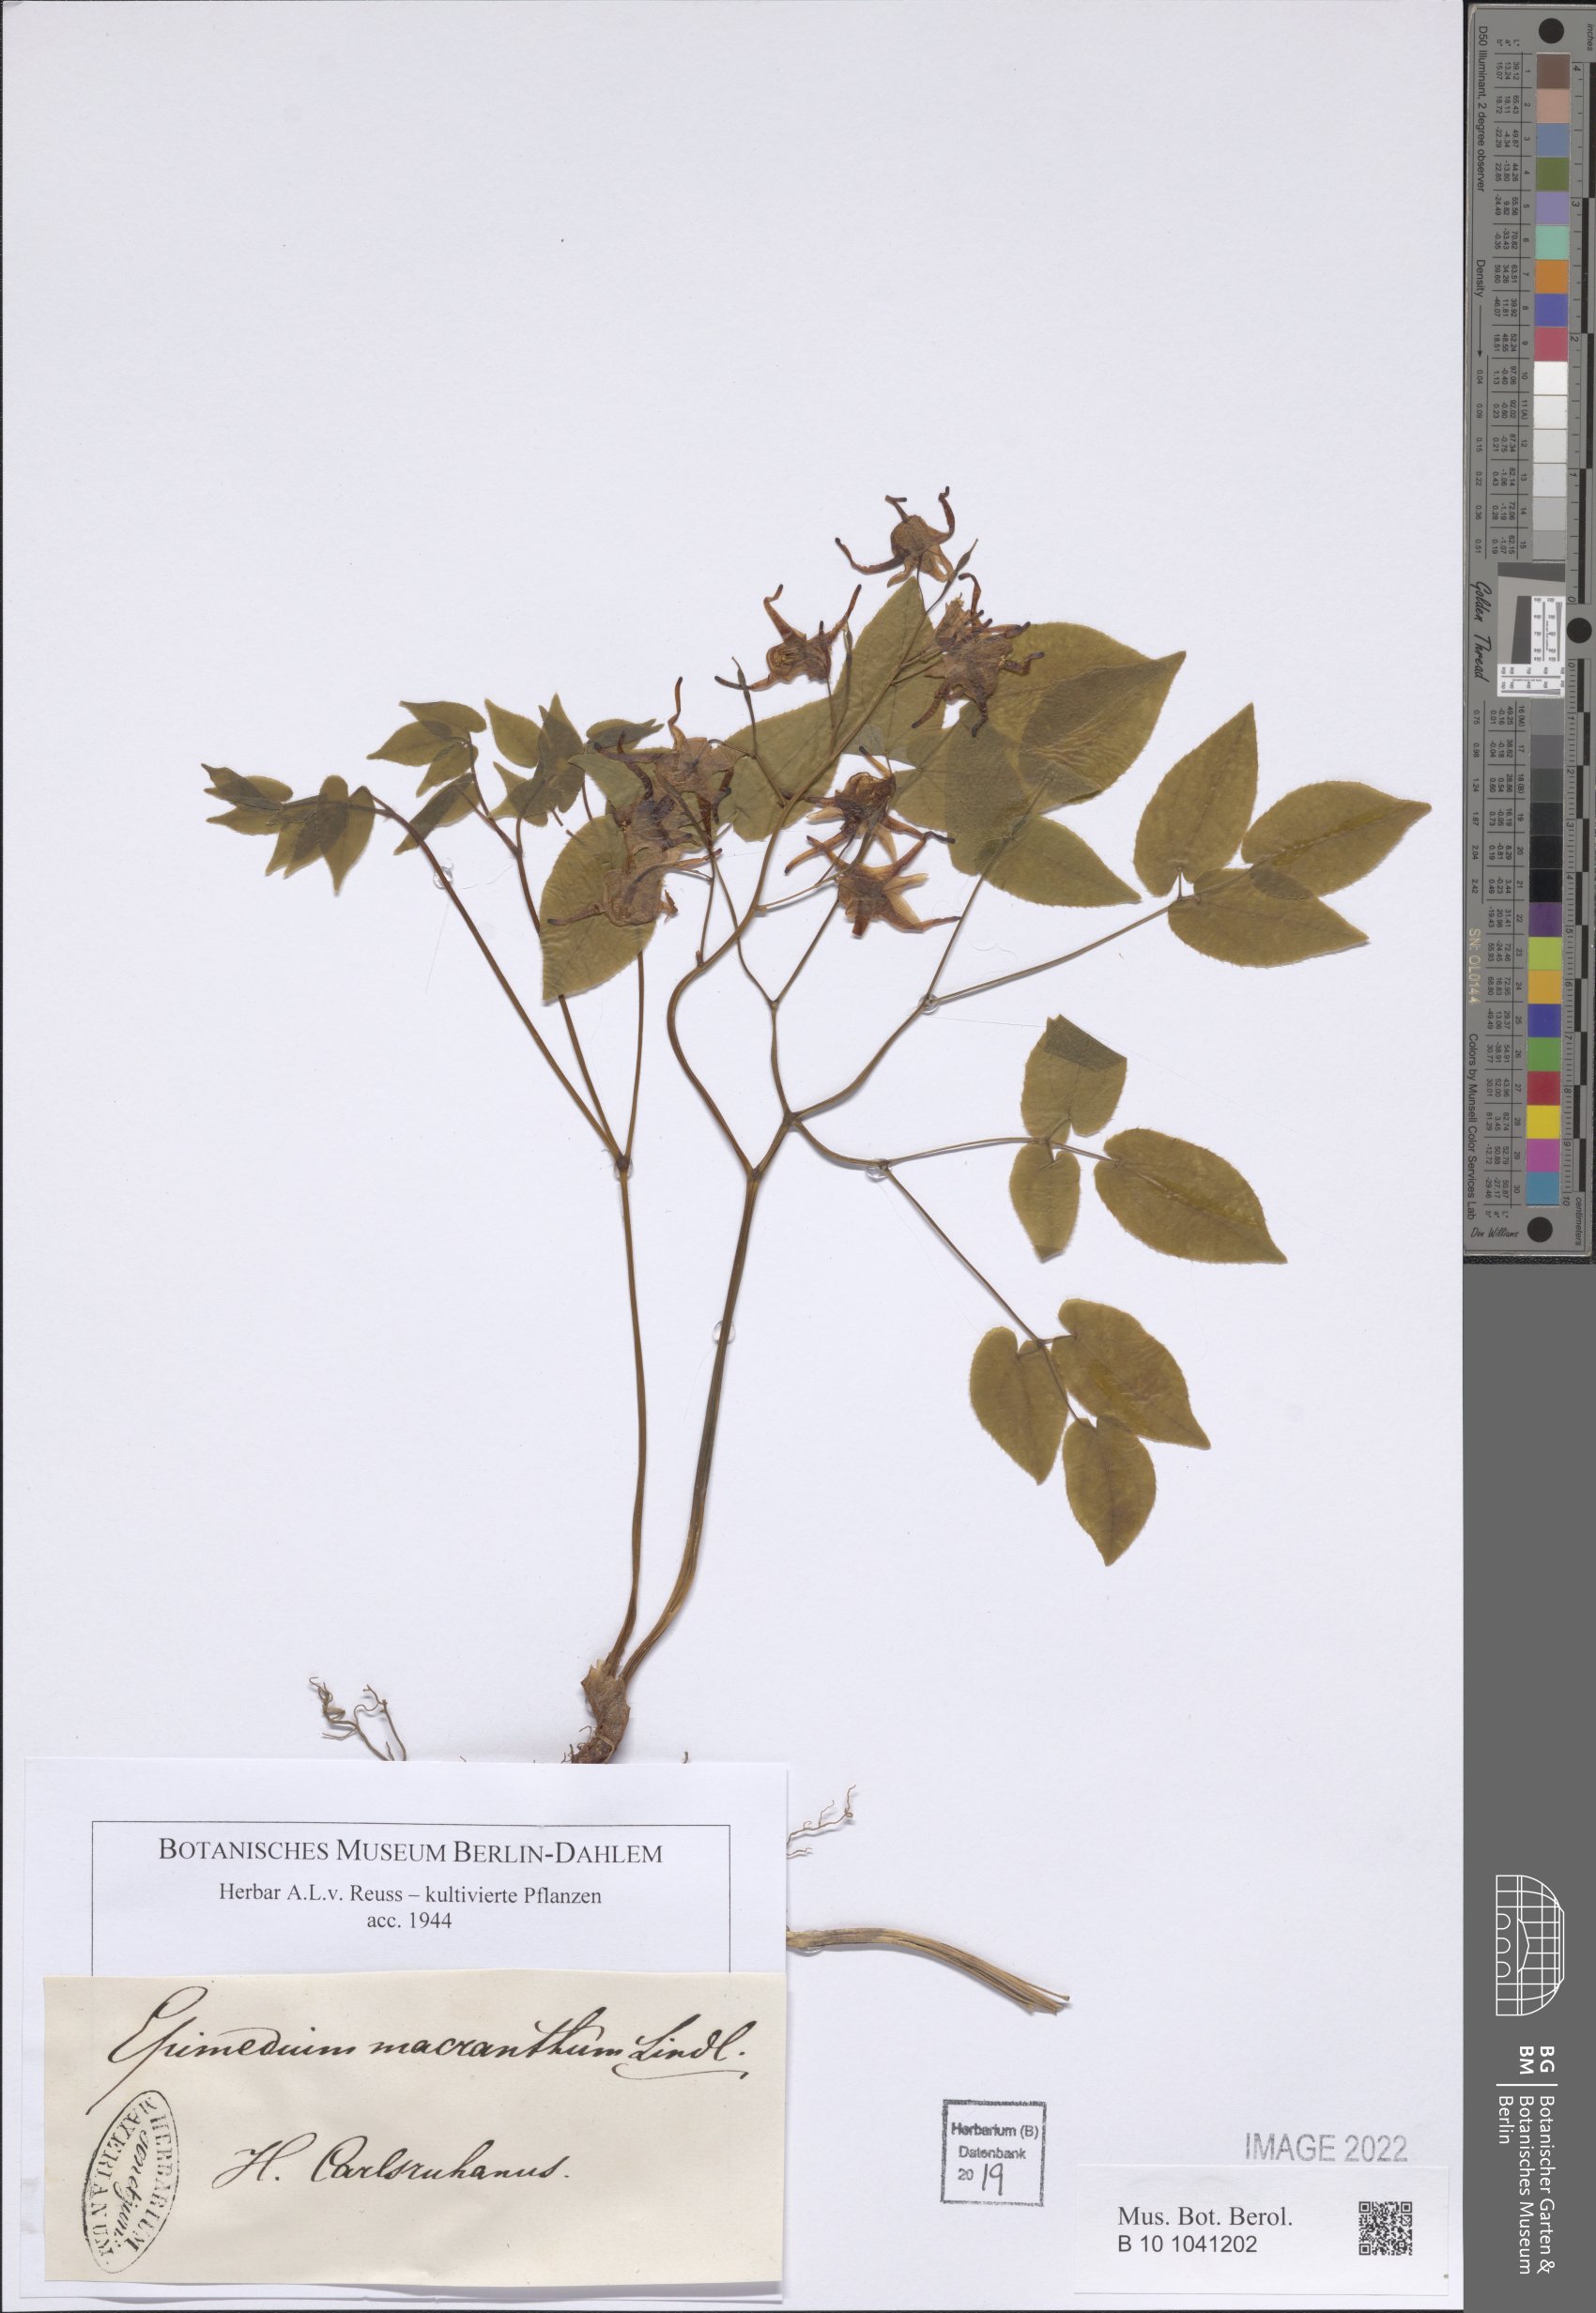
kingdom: Plantae
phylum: Tracheophyta
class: Magnoliopsida
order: Ranunculales
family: Berberidaceae
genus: Epimedium
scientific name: Epimedium grandiflorum
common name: Barrenwort
